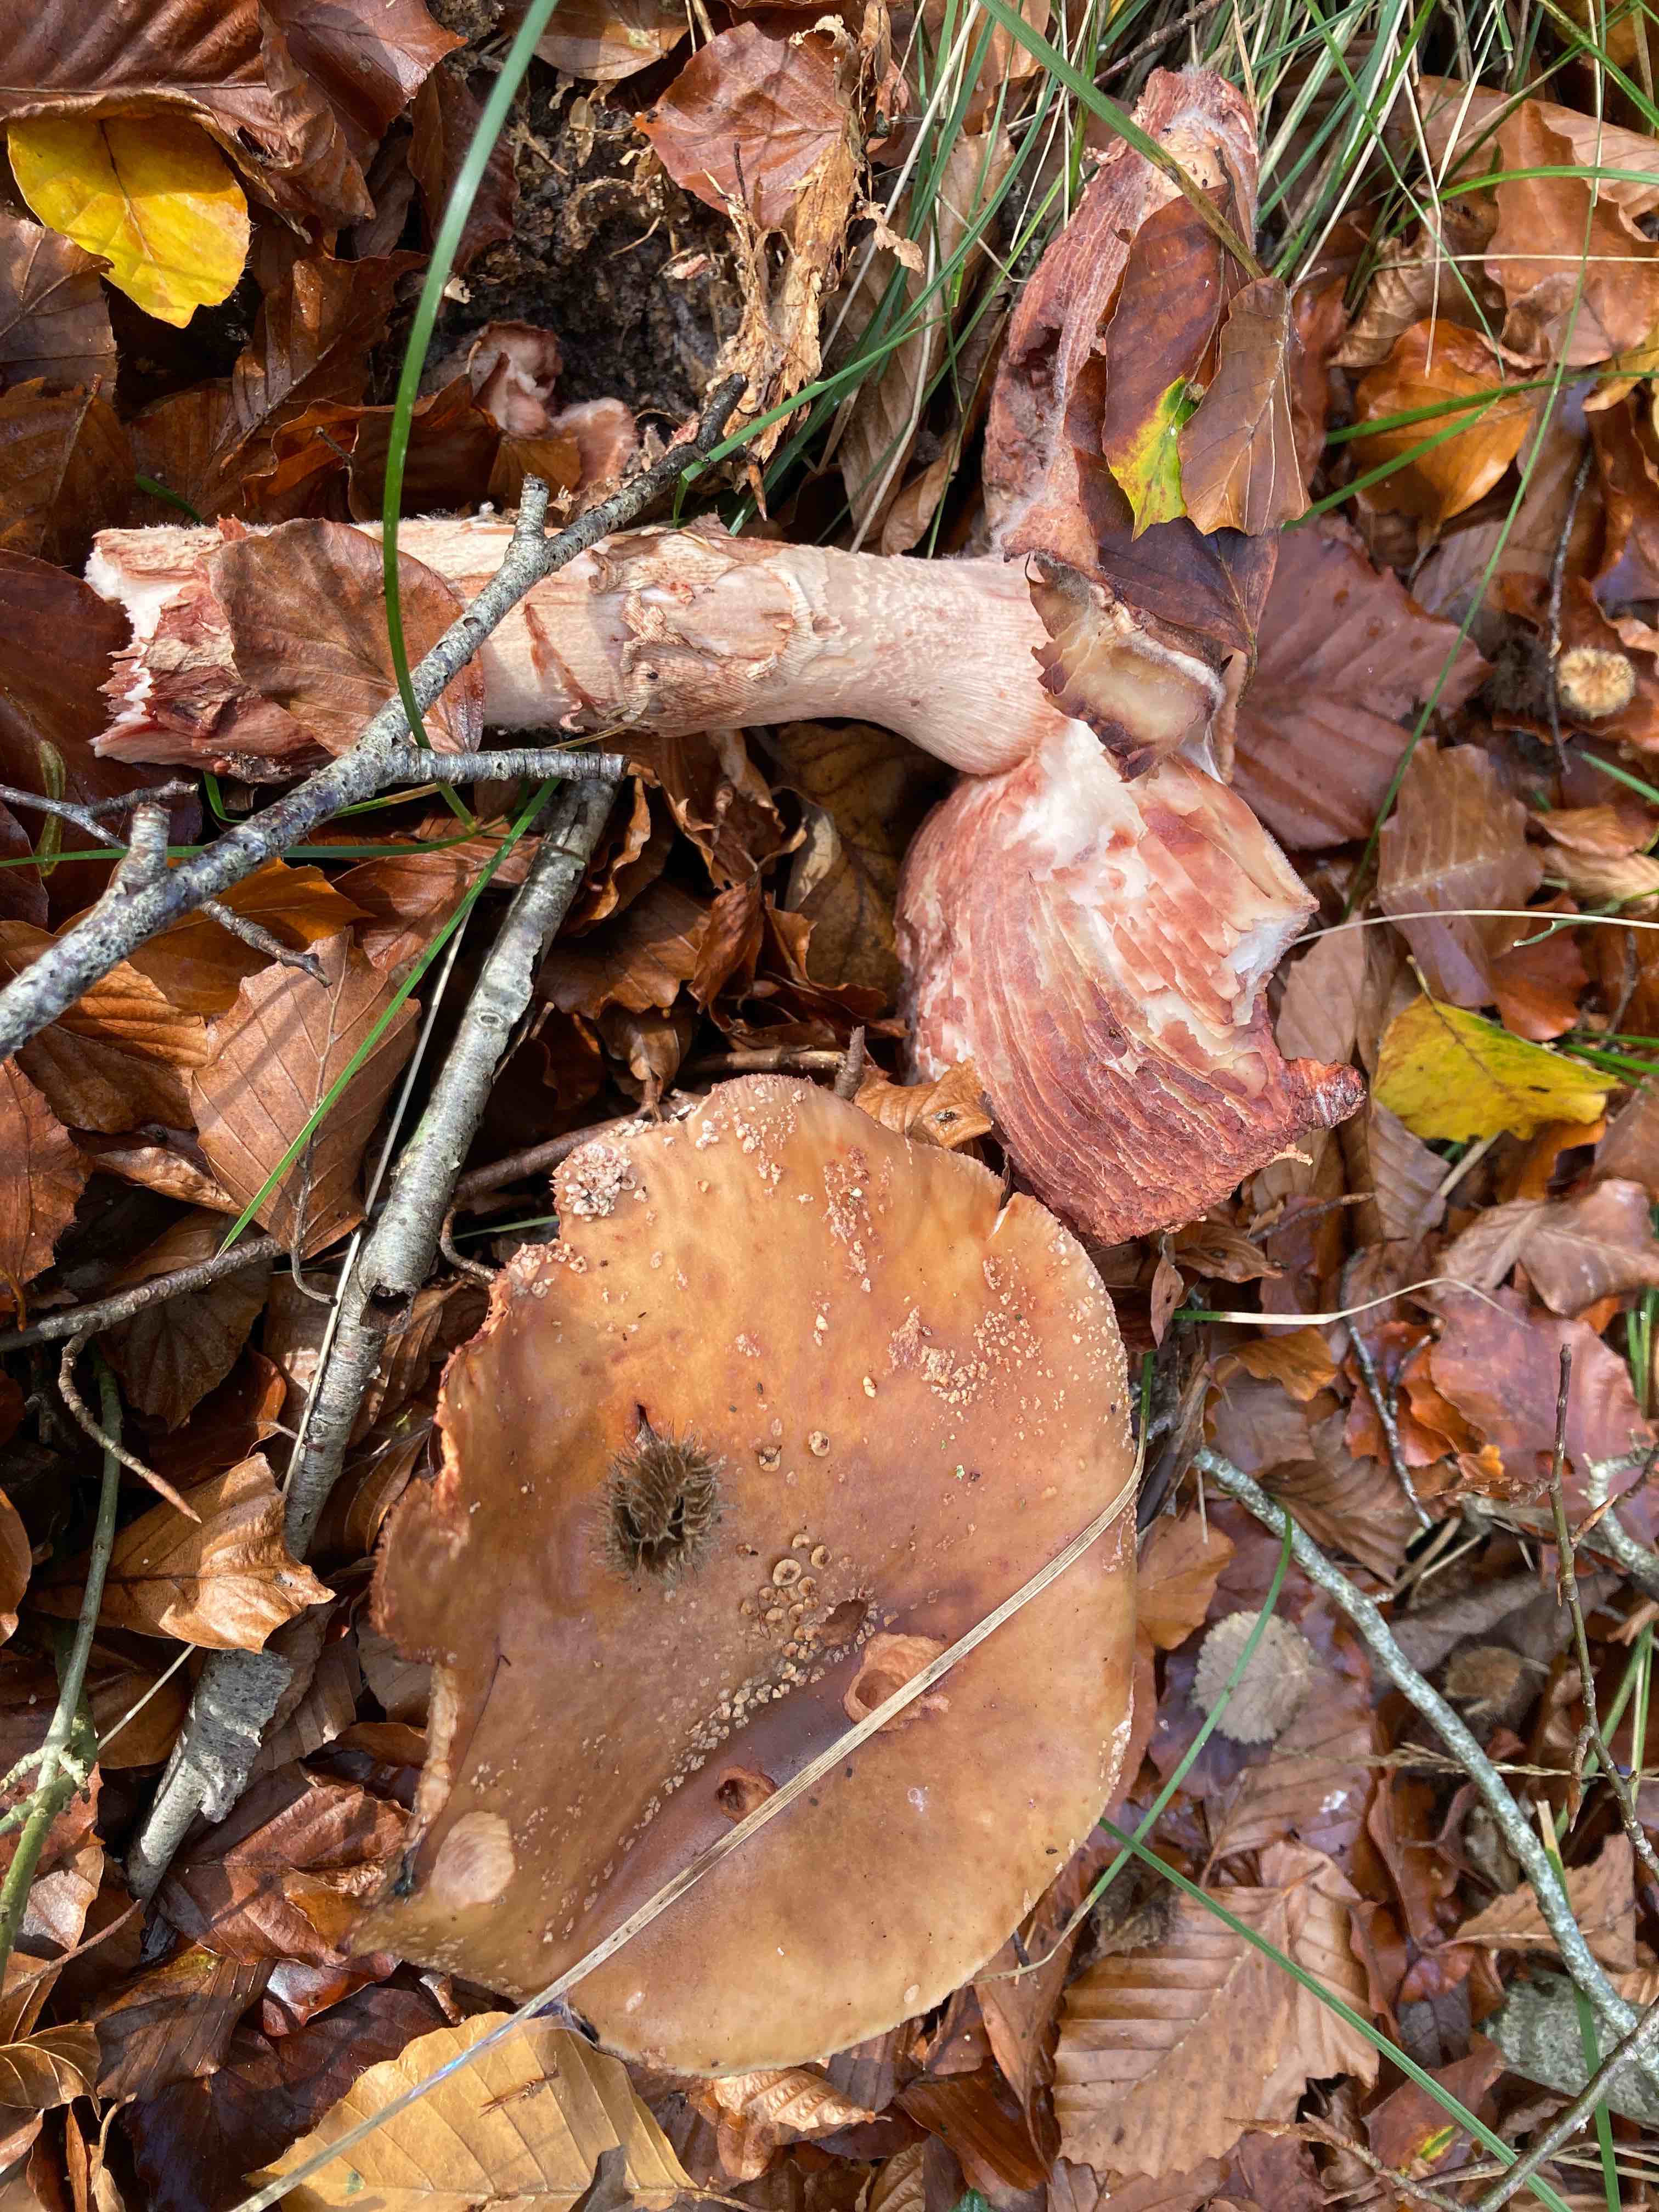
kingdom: Fungi
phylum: Basidiomycota
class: Agaricomycetes
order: Agaricales
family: Amanitaceae
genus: Amanita
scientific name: Amanita rubescens
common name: rødmende fluesvamp
